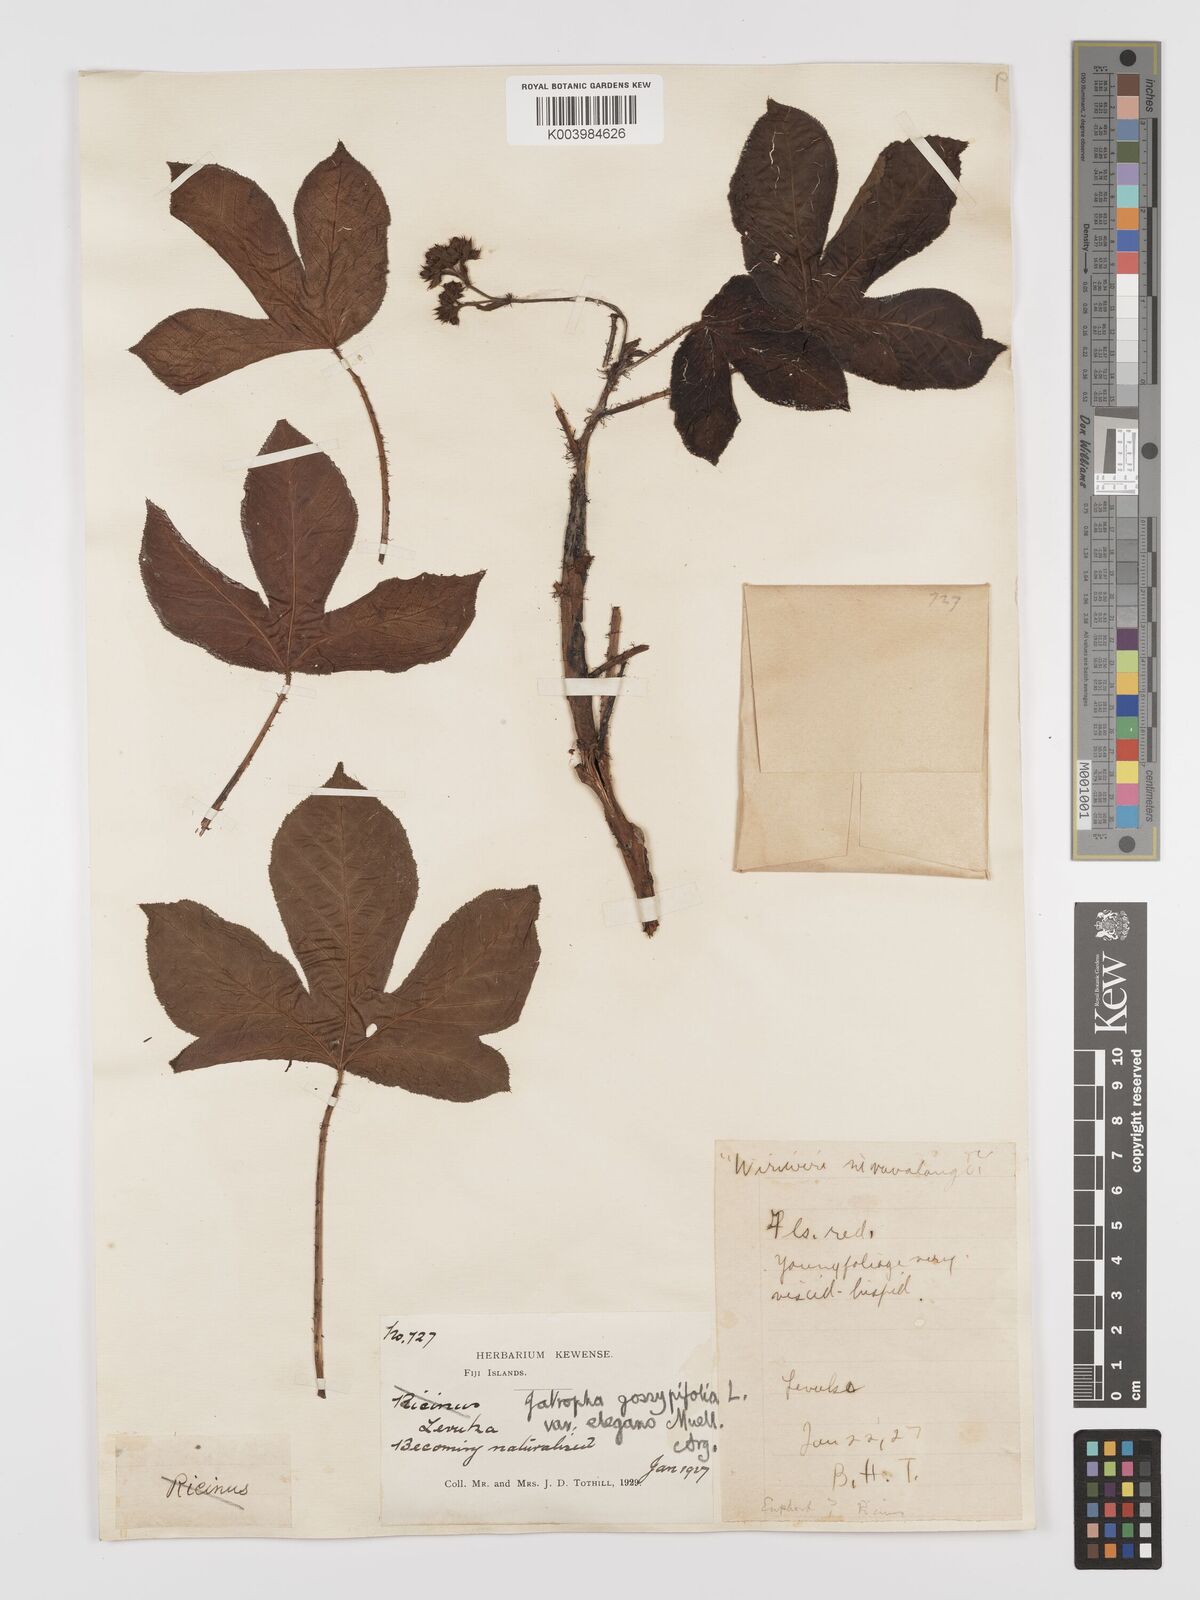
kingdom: Plantae
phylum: Tracheophyta
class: Magnoliopsida
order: Malpighiales
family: Euphorbiaceae
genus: Jatropha
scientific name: Jatropha gossypiifolia
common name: Bellyache bush
